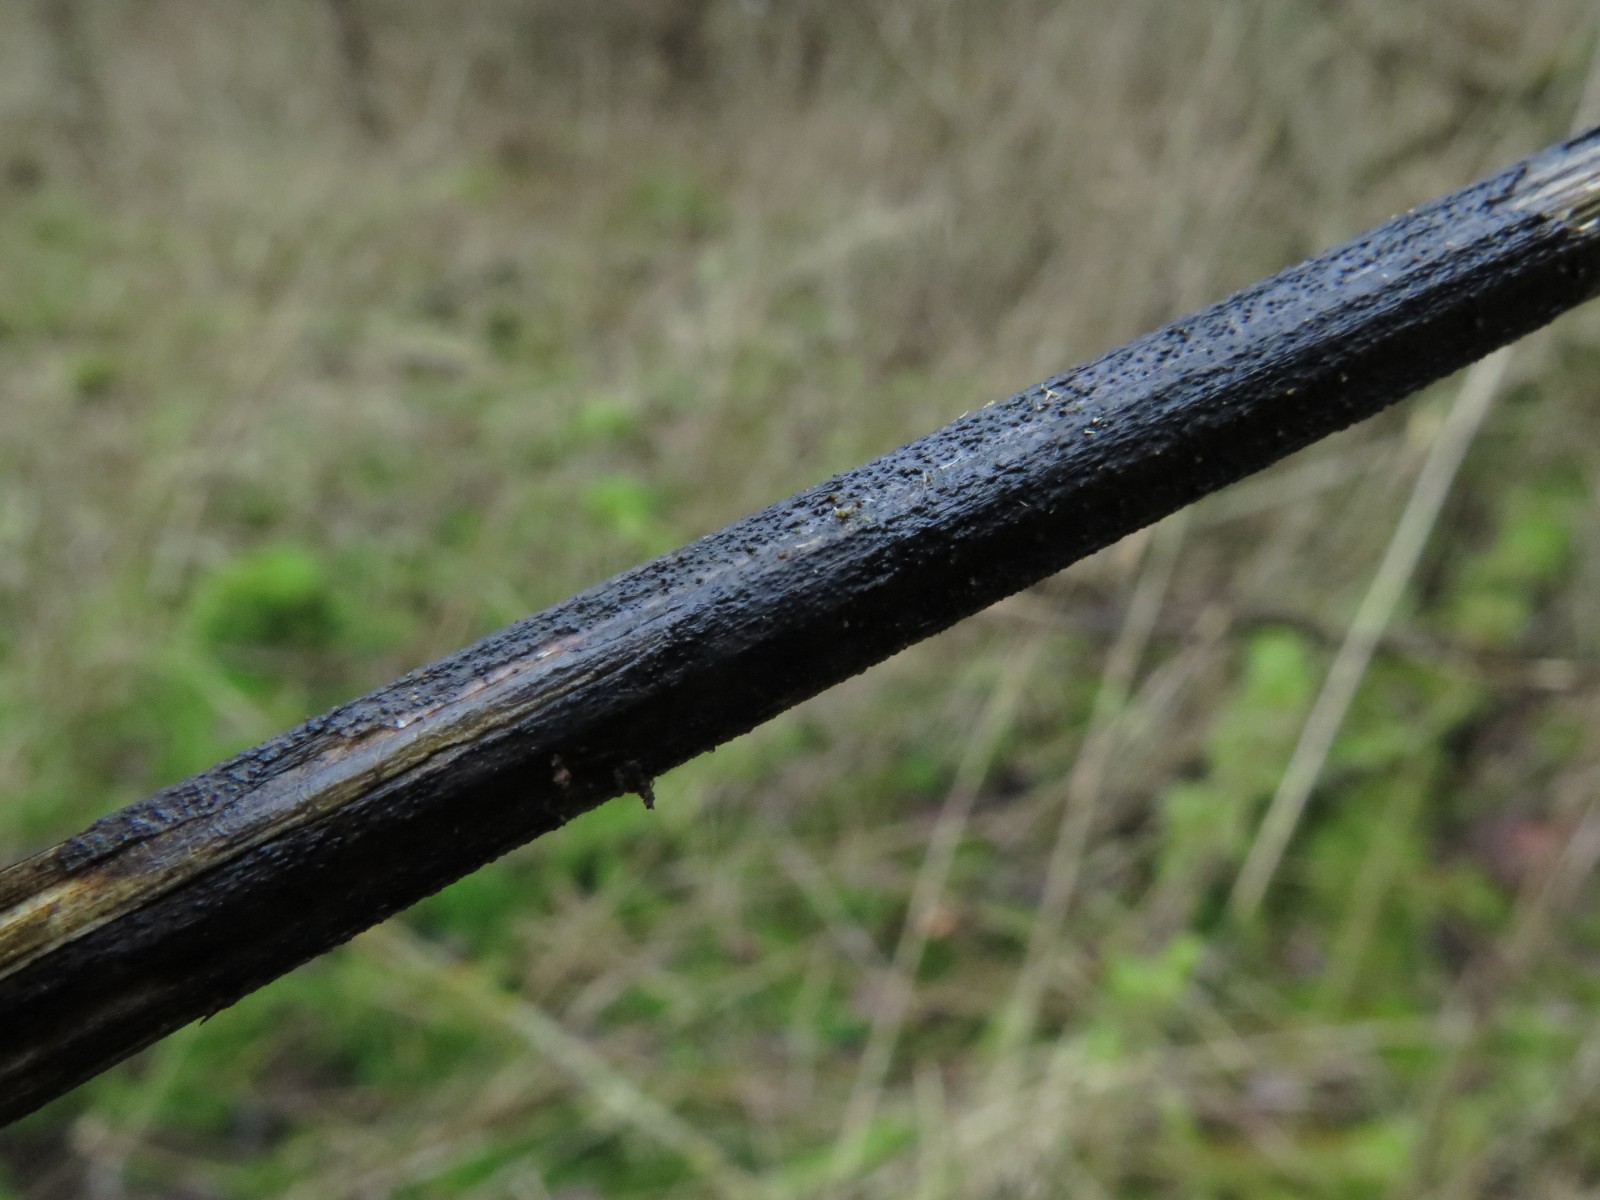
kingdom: Fungi
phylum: Ascomycota
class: Sordariomycetes
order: Diaporthales
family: Diaporthaceae
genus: Diaporthopsis
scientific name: Diaporthopsis urticae
